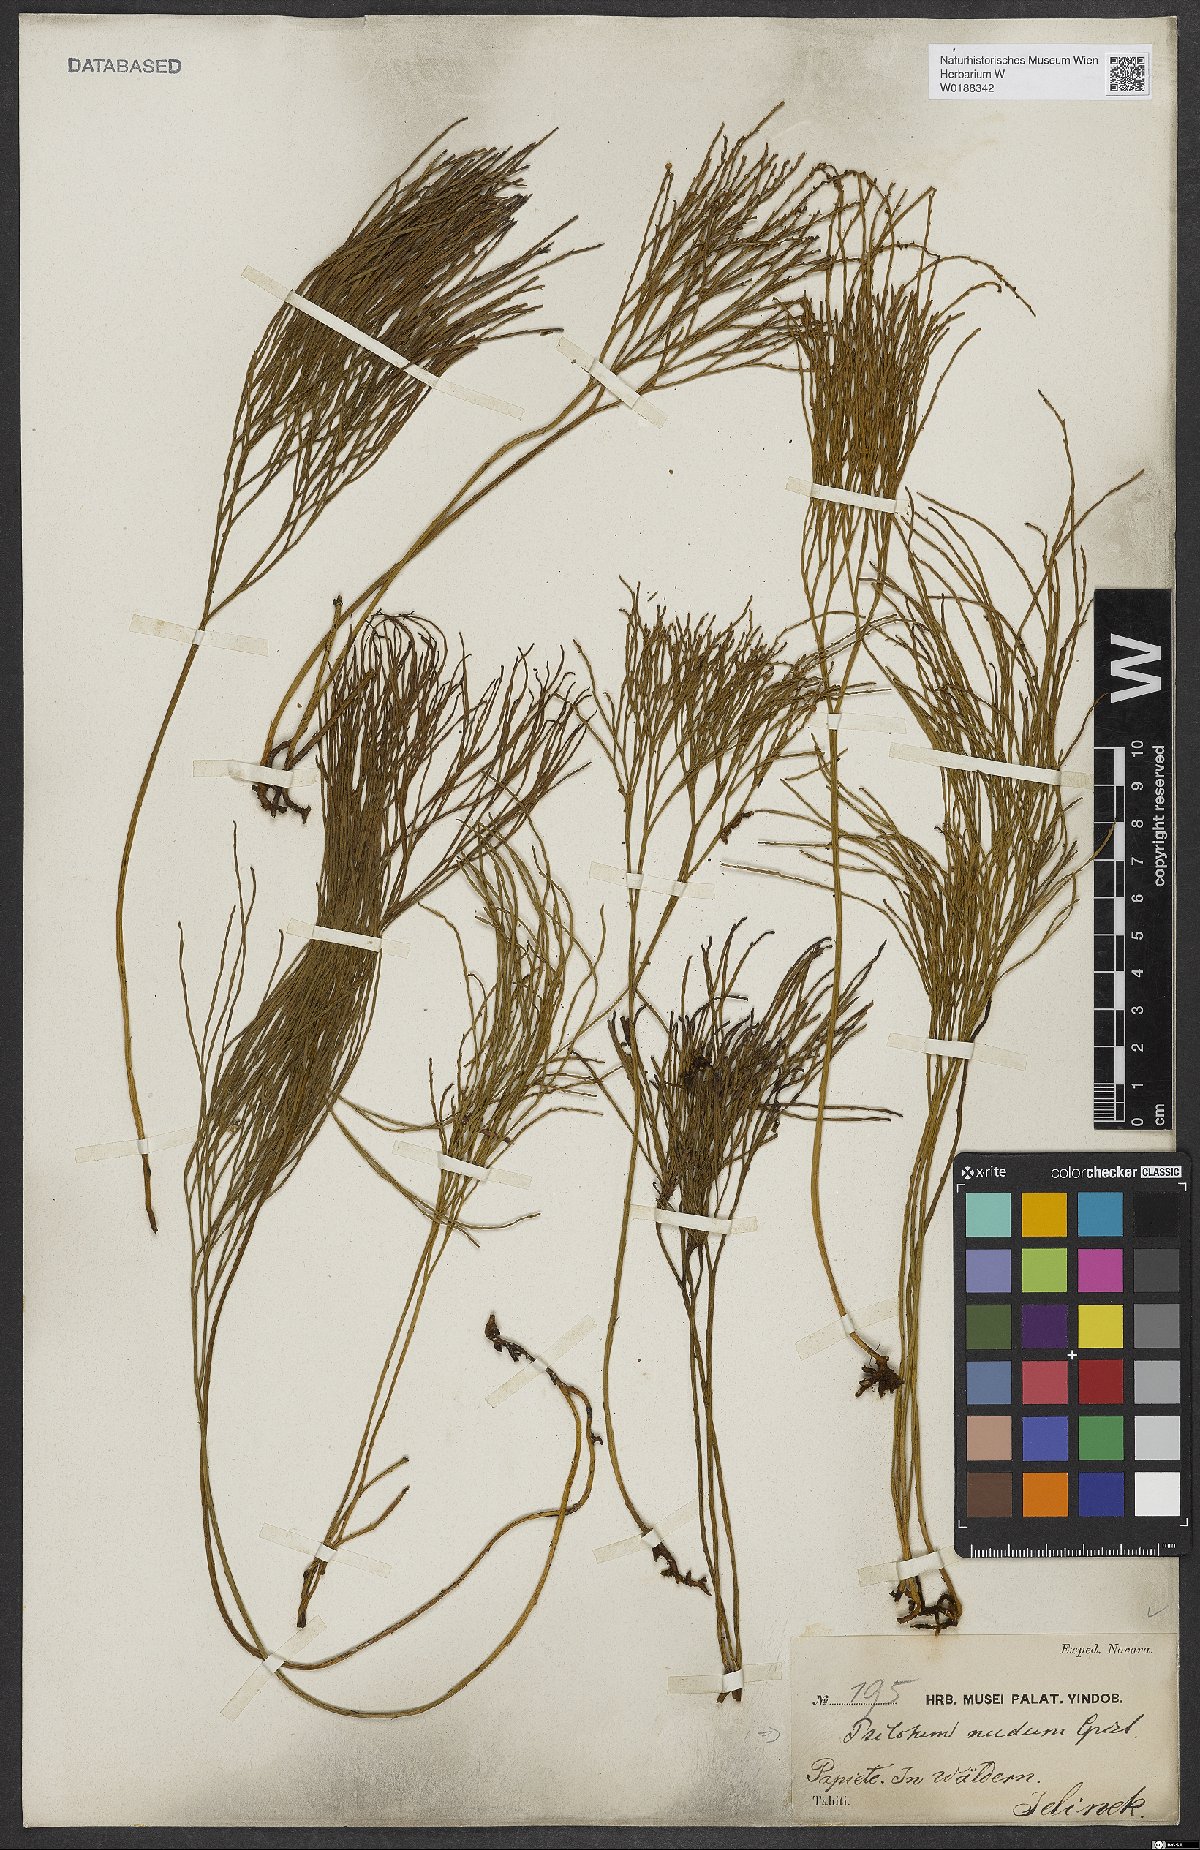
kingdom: Plantae
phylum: Tracheophyta
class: Polypodiopsida
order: Psilotales
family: Psilotaceae
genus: Psilotum
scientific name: Psilotum nudum
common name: Skeleton fork fern
